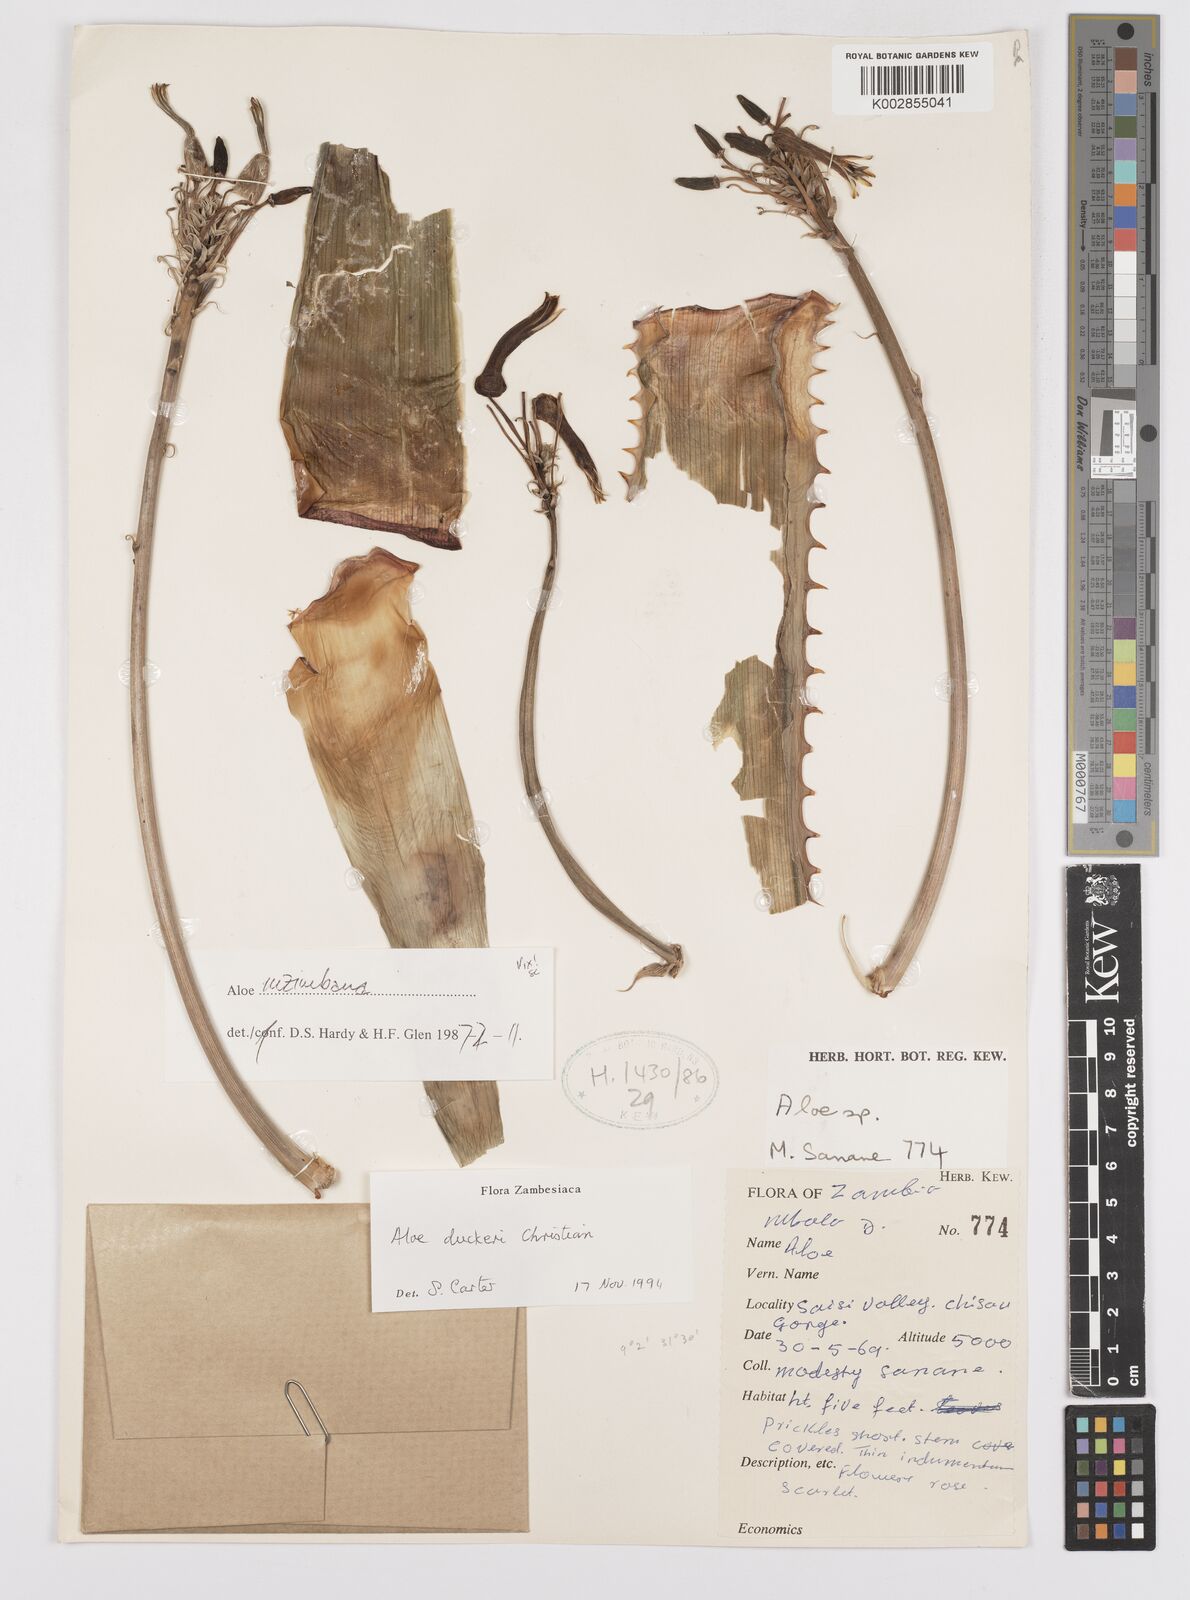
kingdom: Plantae
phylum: Tracheophyta
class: Liliopsida
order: Asparagales
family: Asphodelaceae
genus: Aloe
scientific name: Aloe duckeri
